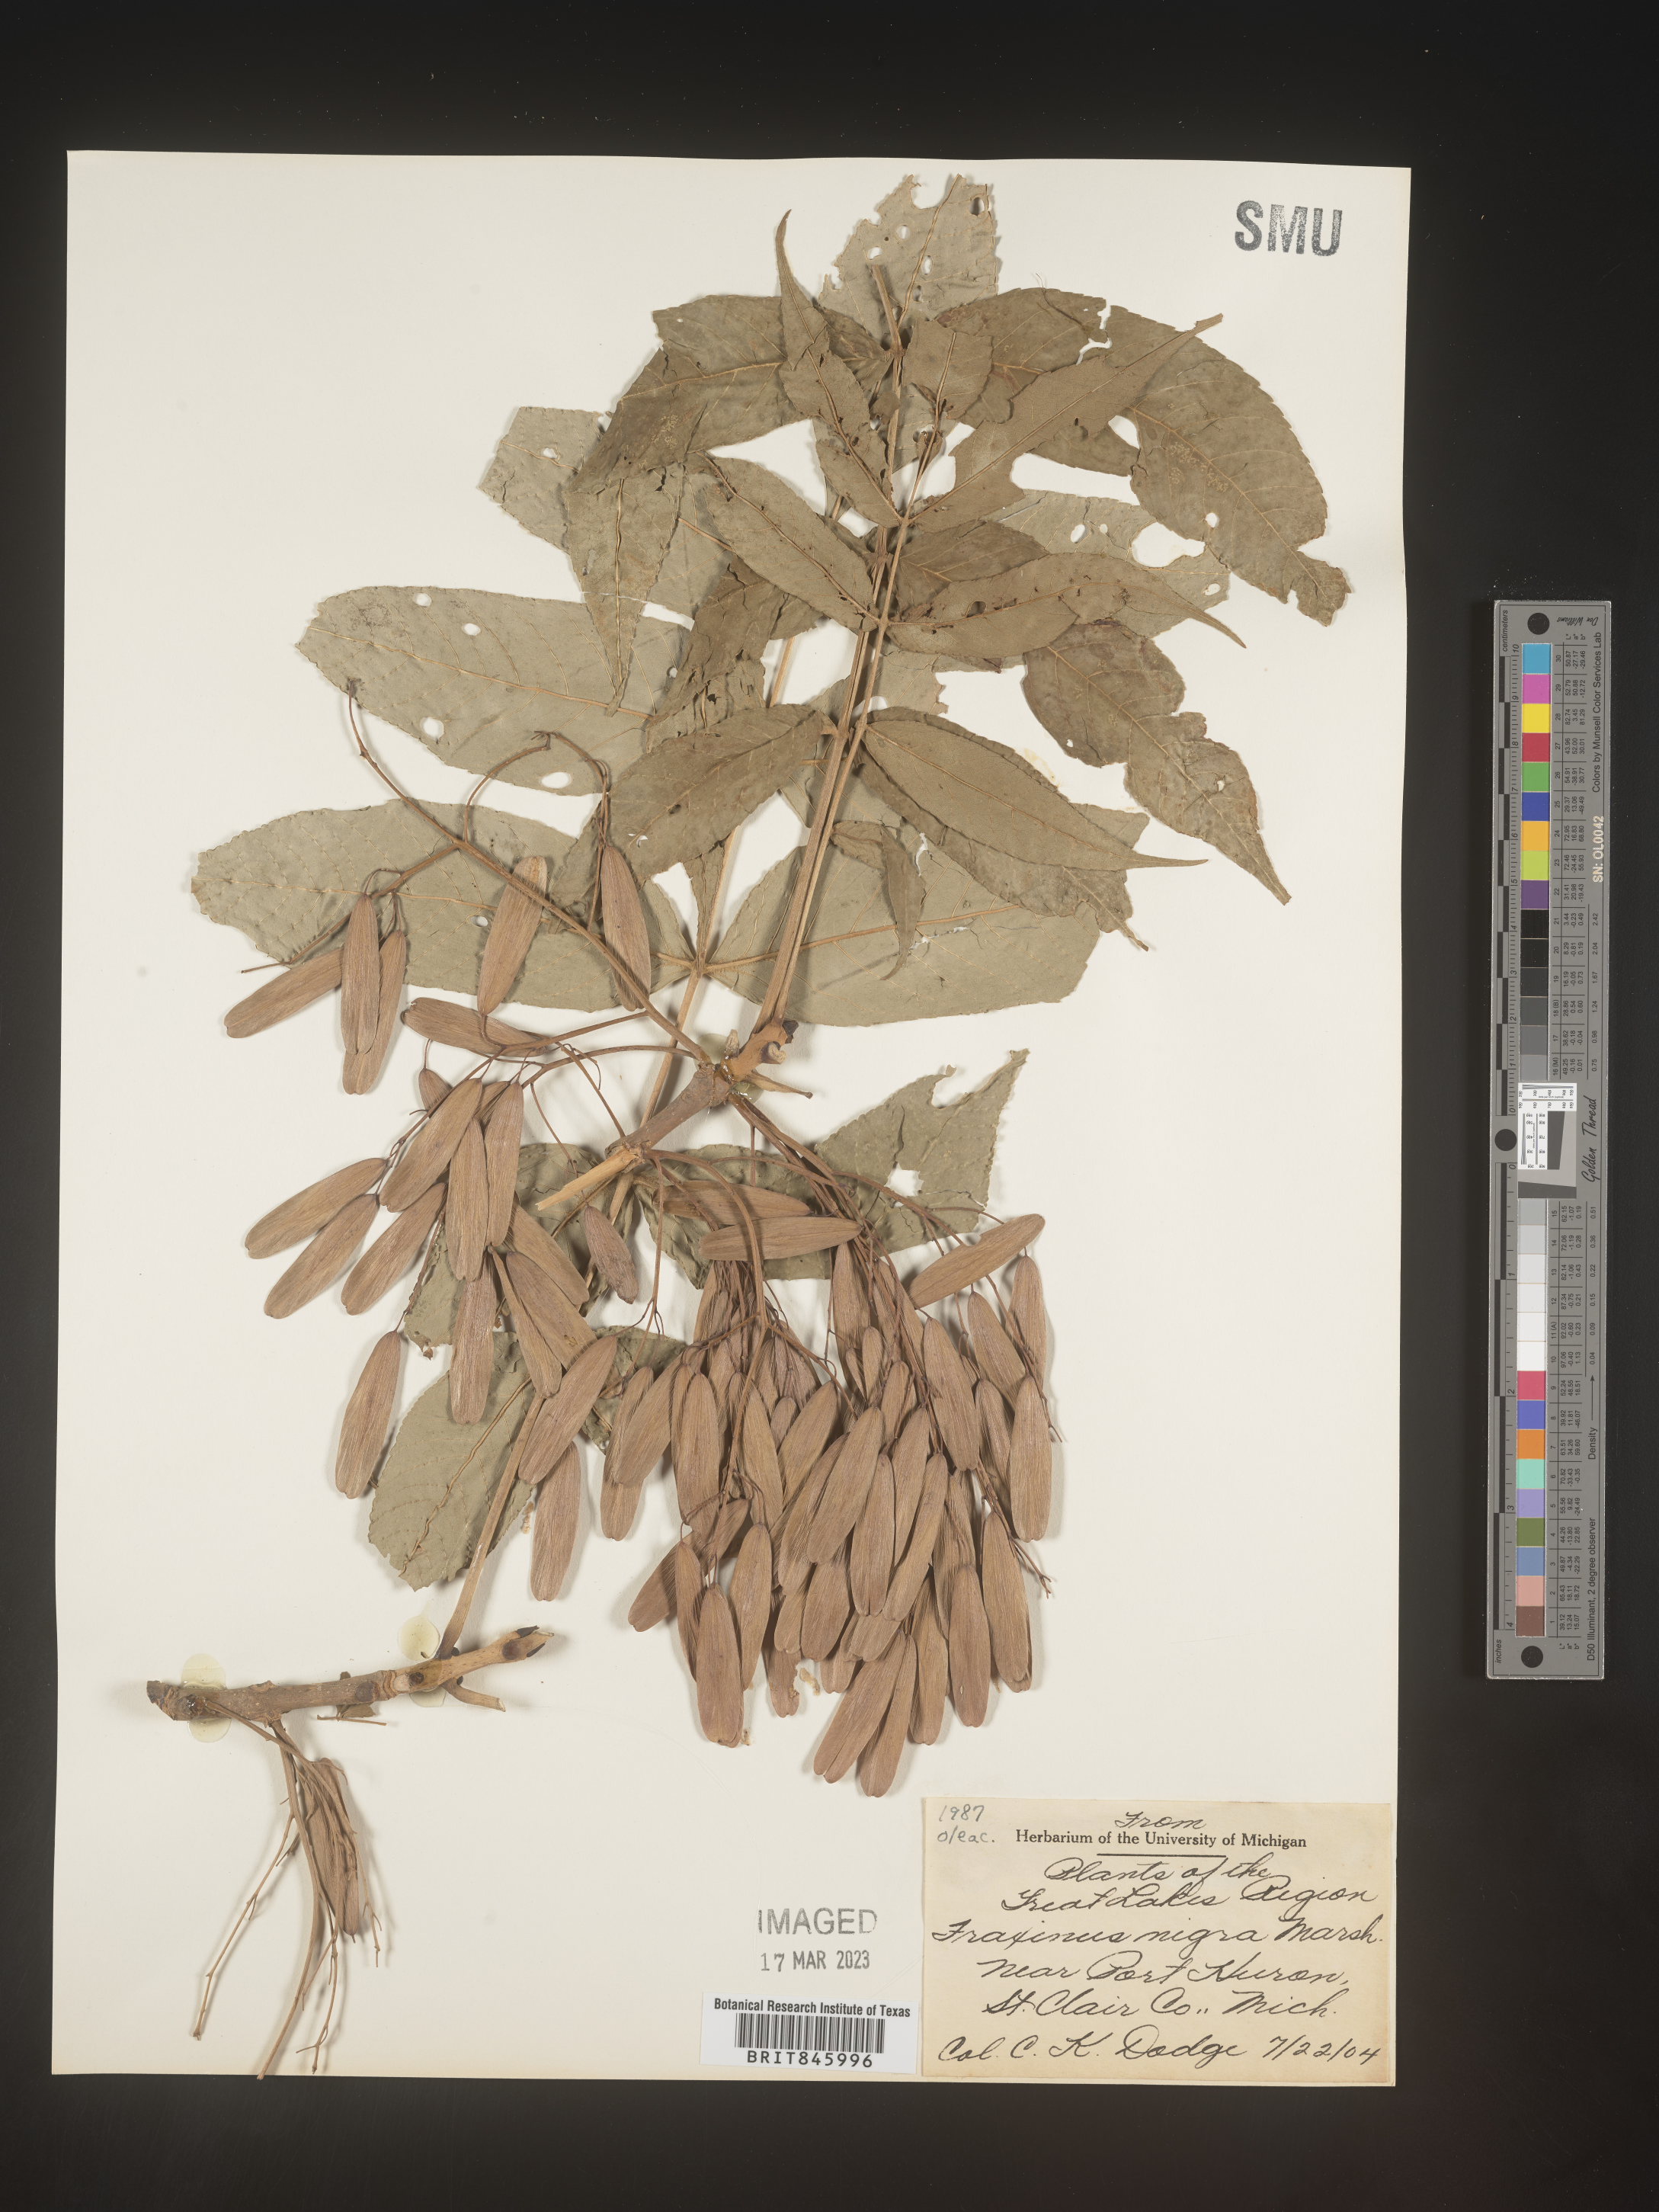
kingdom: Plantae
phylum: Tracheophyta
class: Magnoliopsida
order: Lamiales
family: Oleaceae
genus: Fraxinus
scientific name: Fraxinus nigra
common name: Black ash
